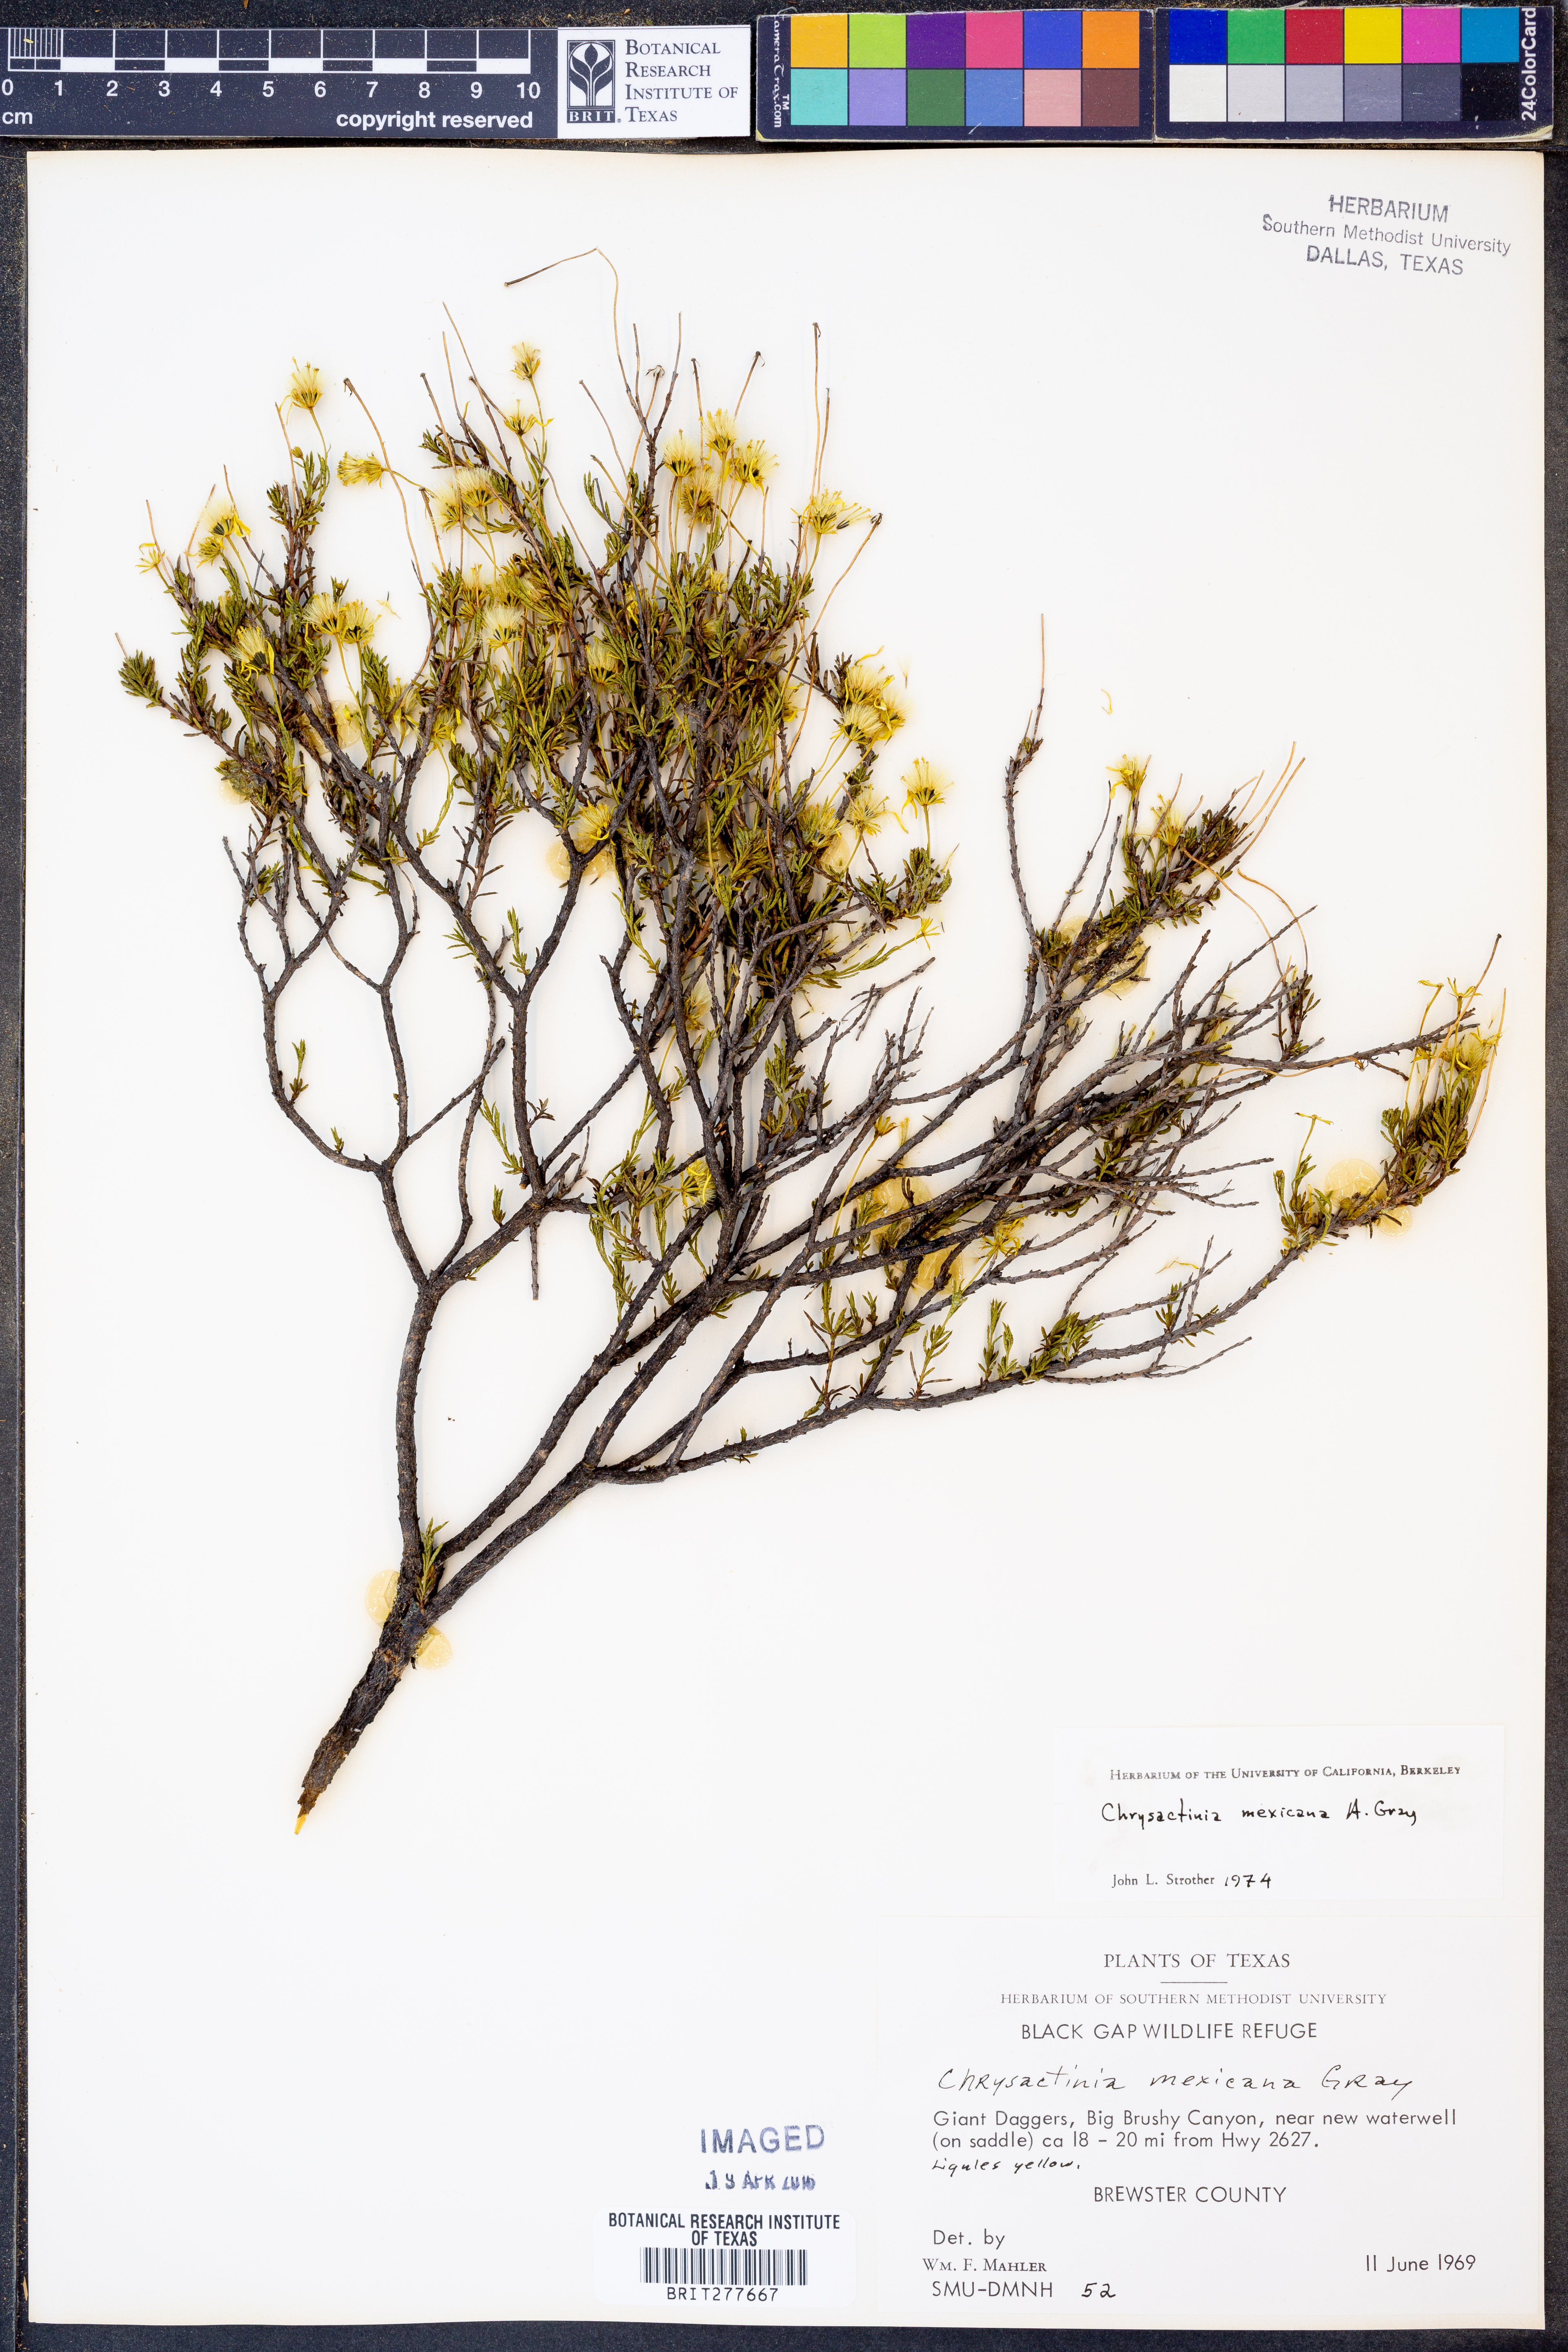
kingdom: Plantae
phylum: Tracheophyta
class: Magnoliopsida
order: Asterales
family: Asteraceae
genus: Chrysactinia
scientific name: Chrysactinia mexicana
